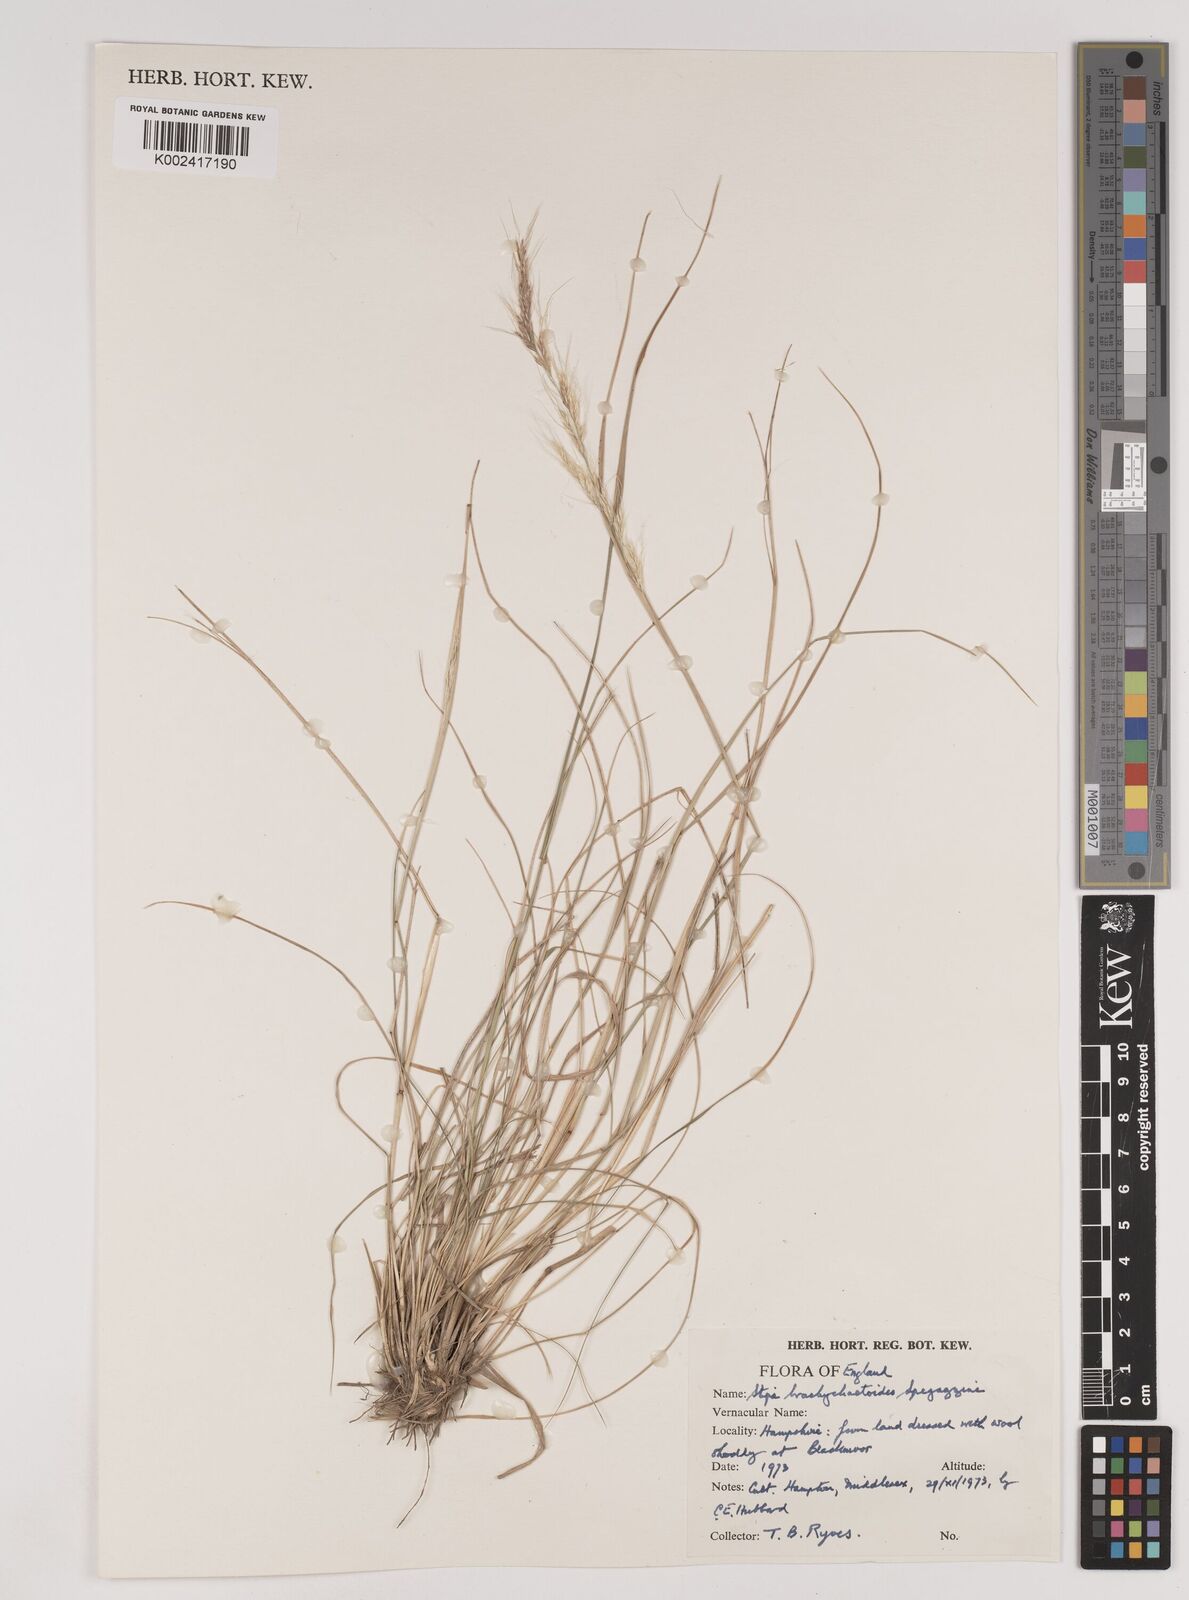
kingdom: Plantae
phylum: Tracheophyta
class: Liliopsida
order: Poales
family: Poaceae
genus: Nassella
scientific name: Nassella brachychaetoides
